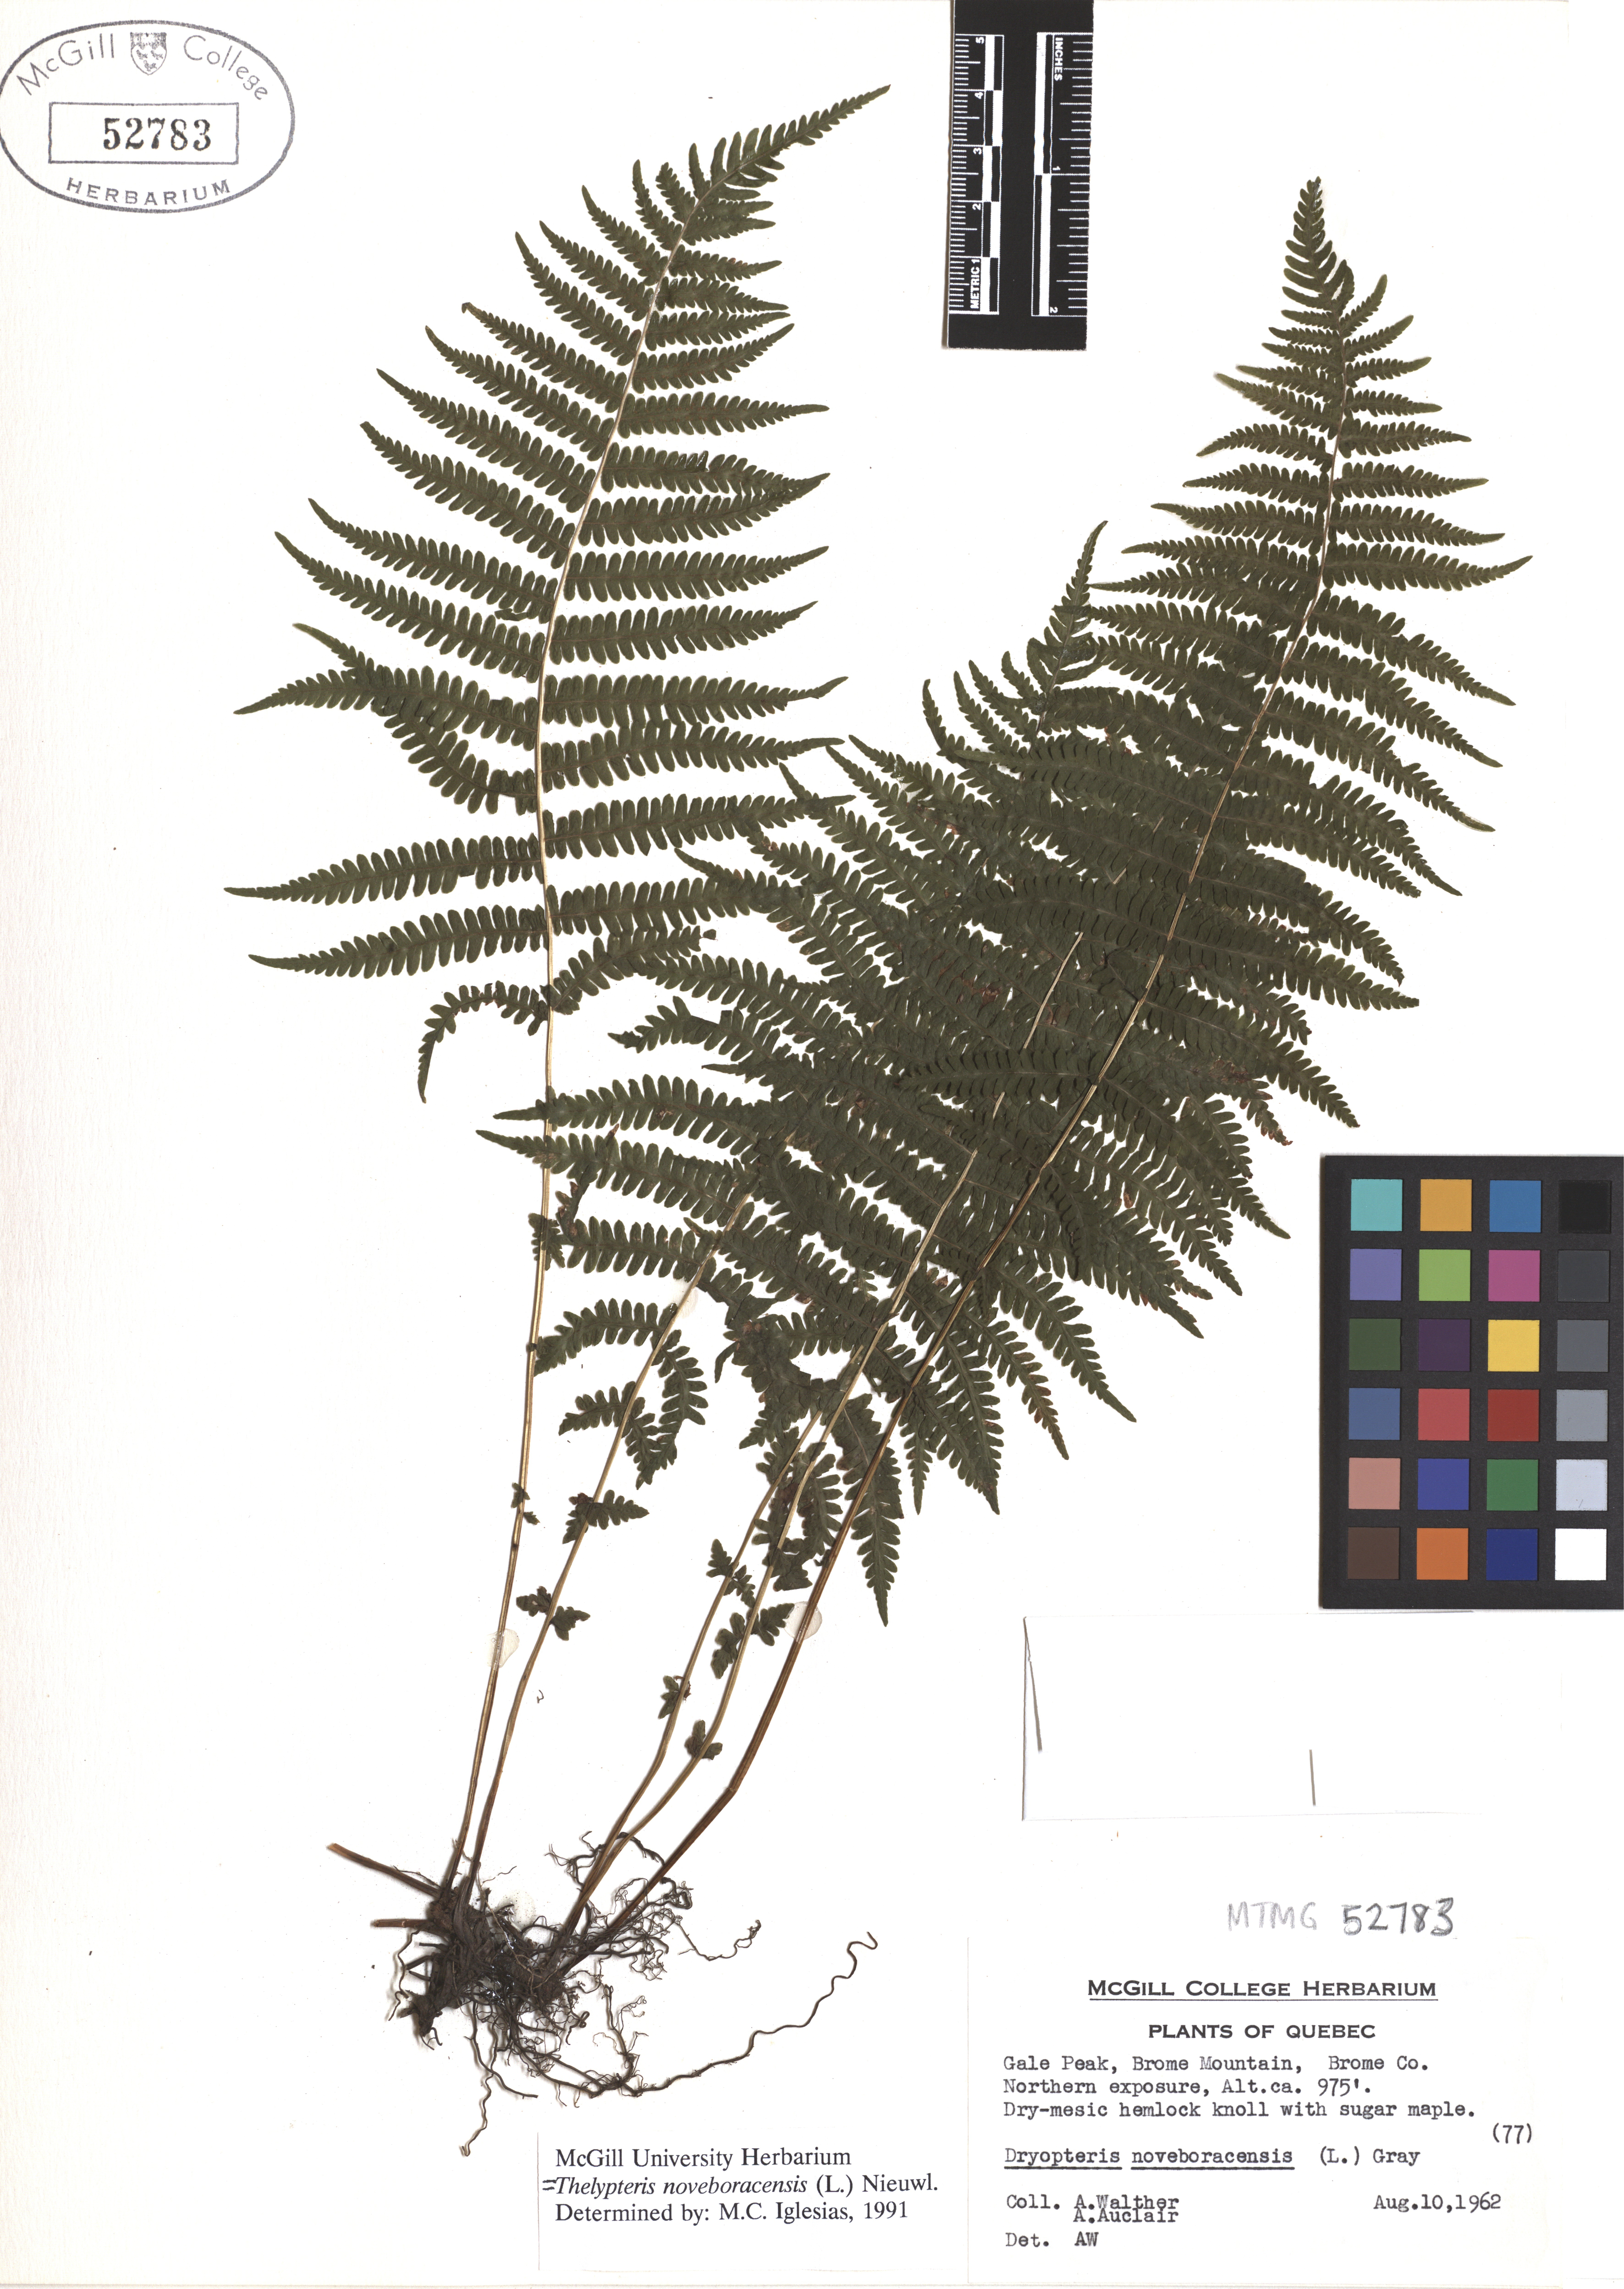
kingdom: Plantae
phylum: Tracheophyta
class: Polypodiopsida
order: Polypodiales
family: Thelypteridaceae
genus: Amauropelta
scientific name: Amauropelta noveboracensis
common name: New york fern
